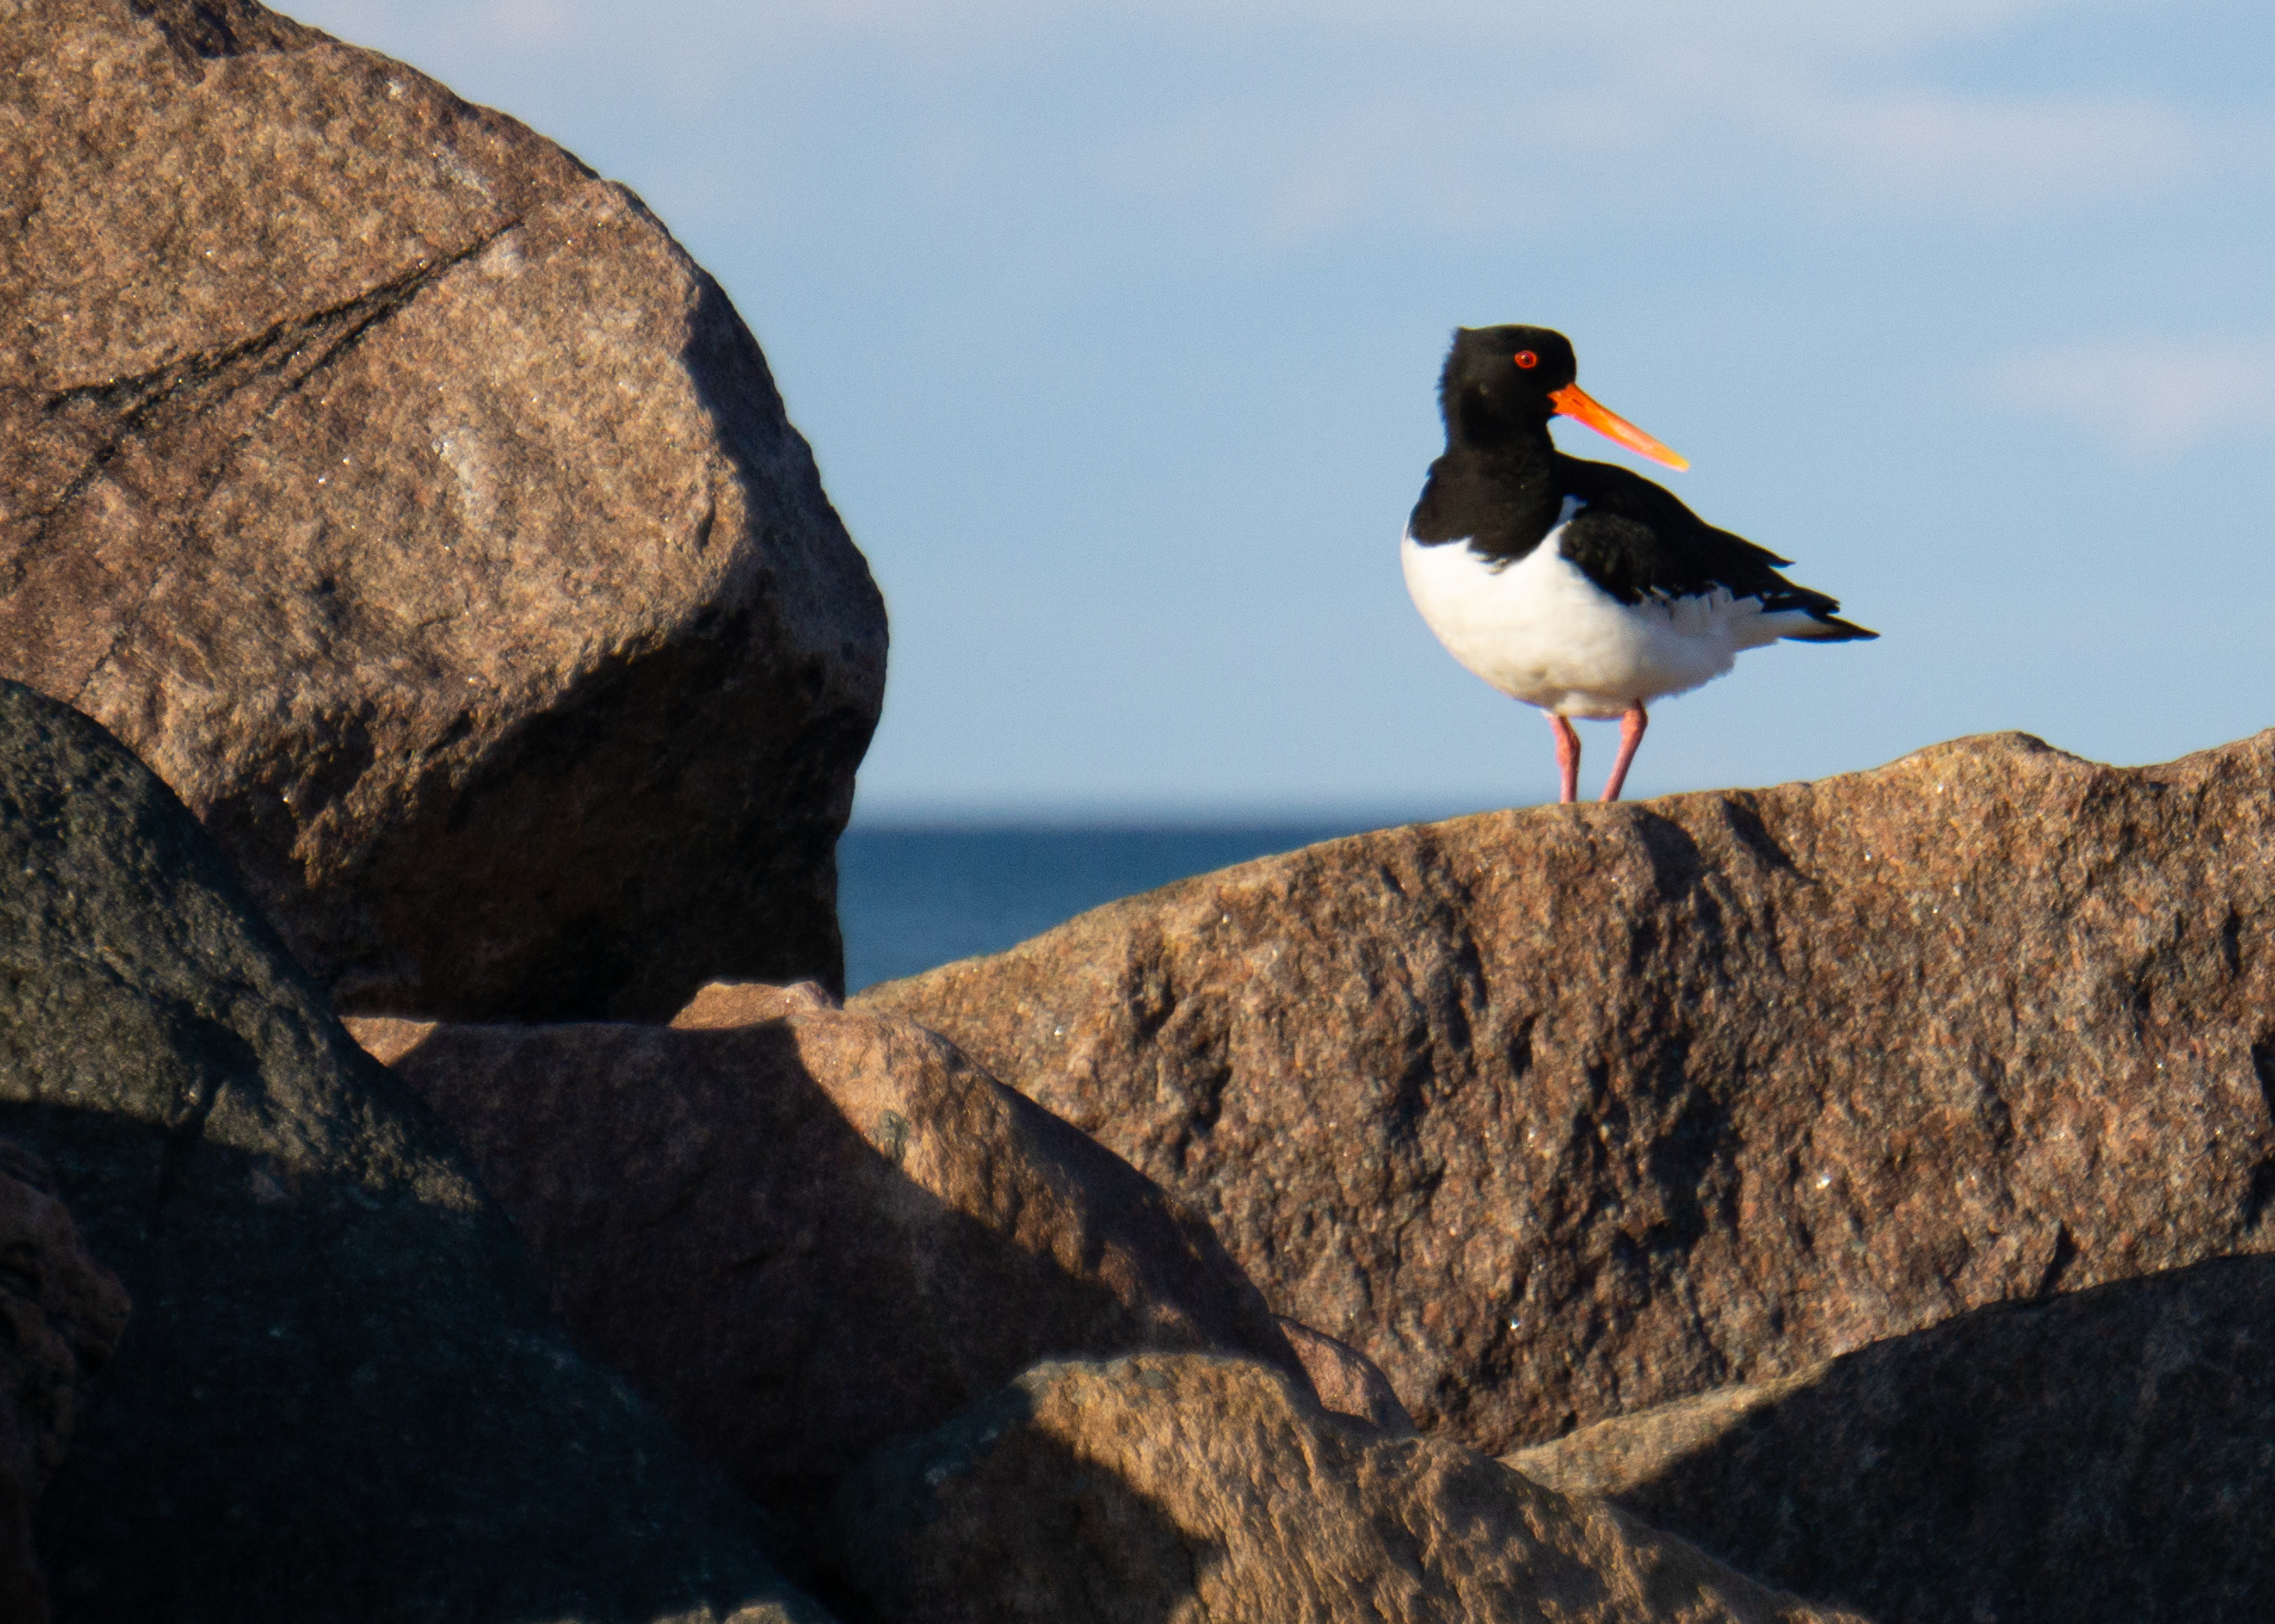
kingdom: Animalia
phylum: Chordata
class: Aves
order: Charadriiformes
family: Haematopodidae
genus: Haematopus
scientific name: Haematopus ostralegus
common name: Strandskade
